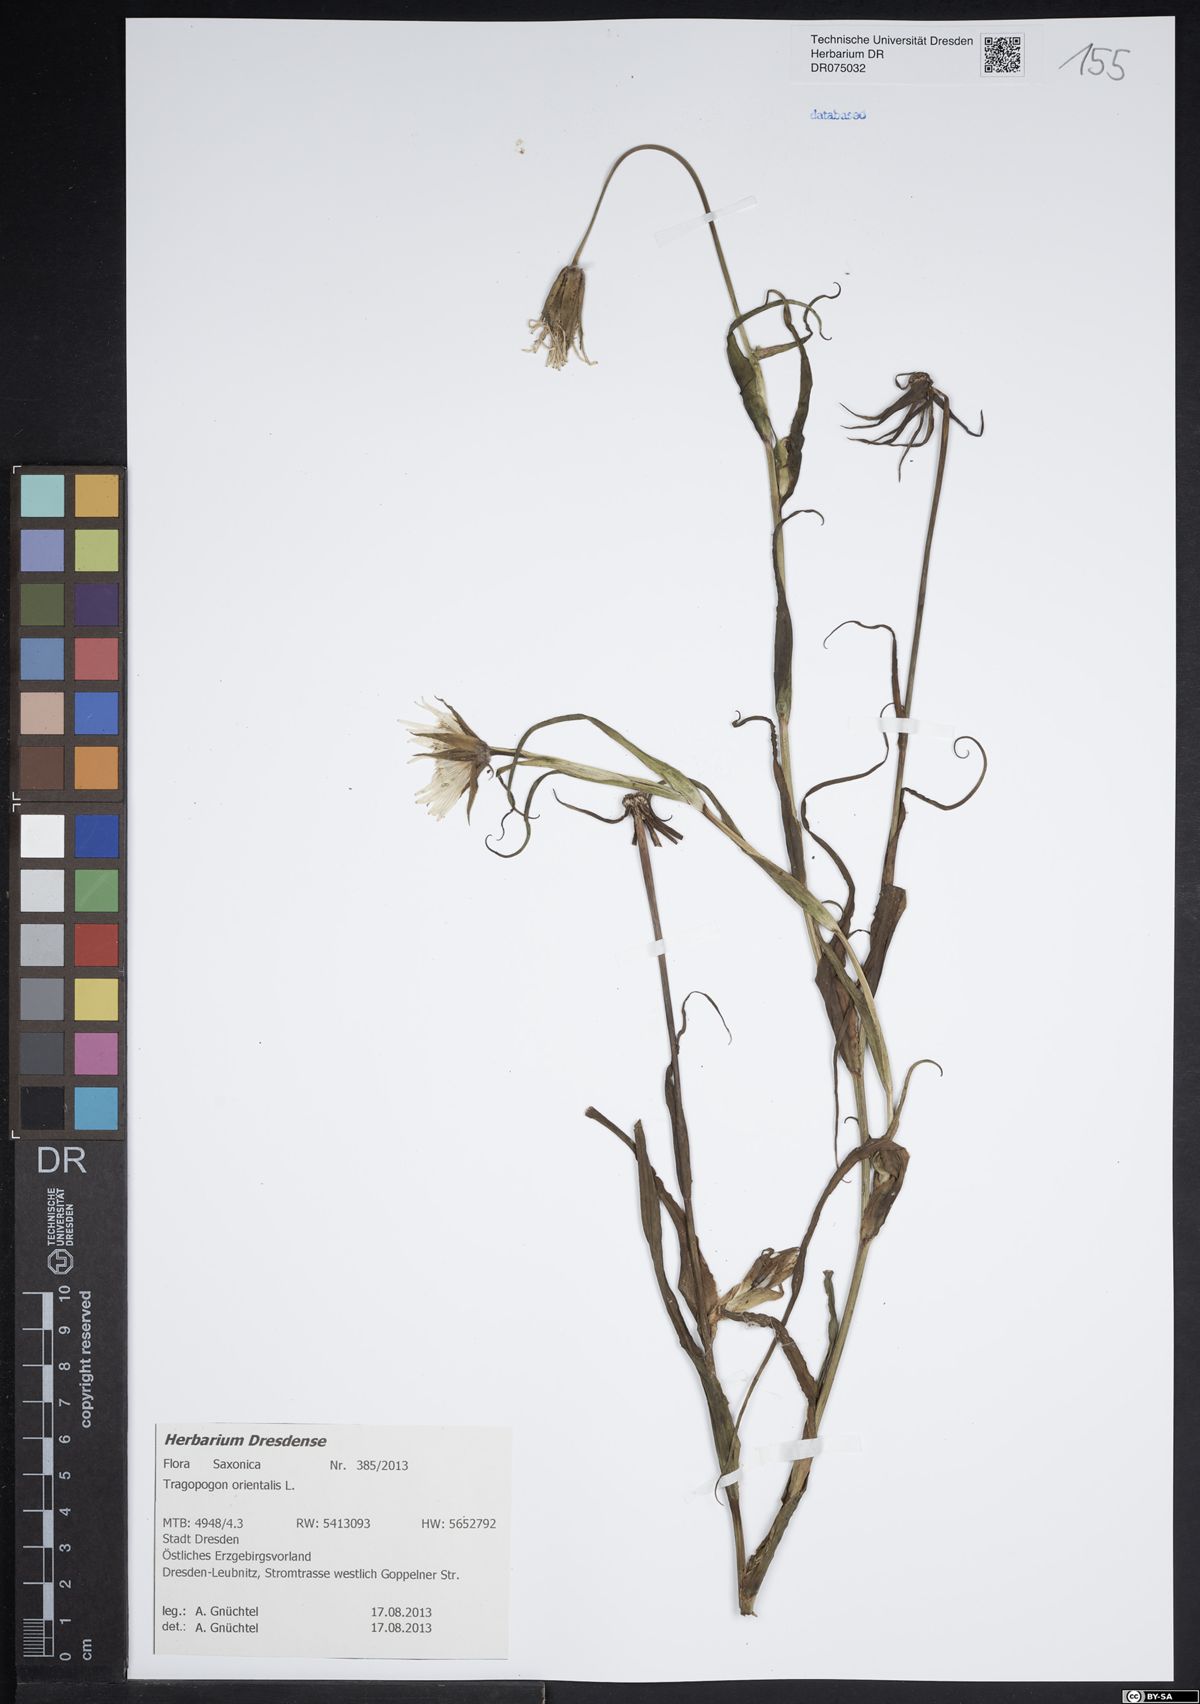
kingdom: Plantae
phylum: Tracheophyta
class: Magnoliopsida
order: Asterales
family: Asteraceae
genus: Tragopogon
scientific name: Tragopogon orientalis
